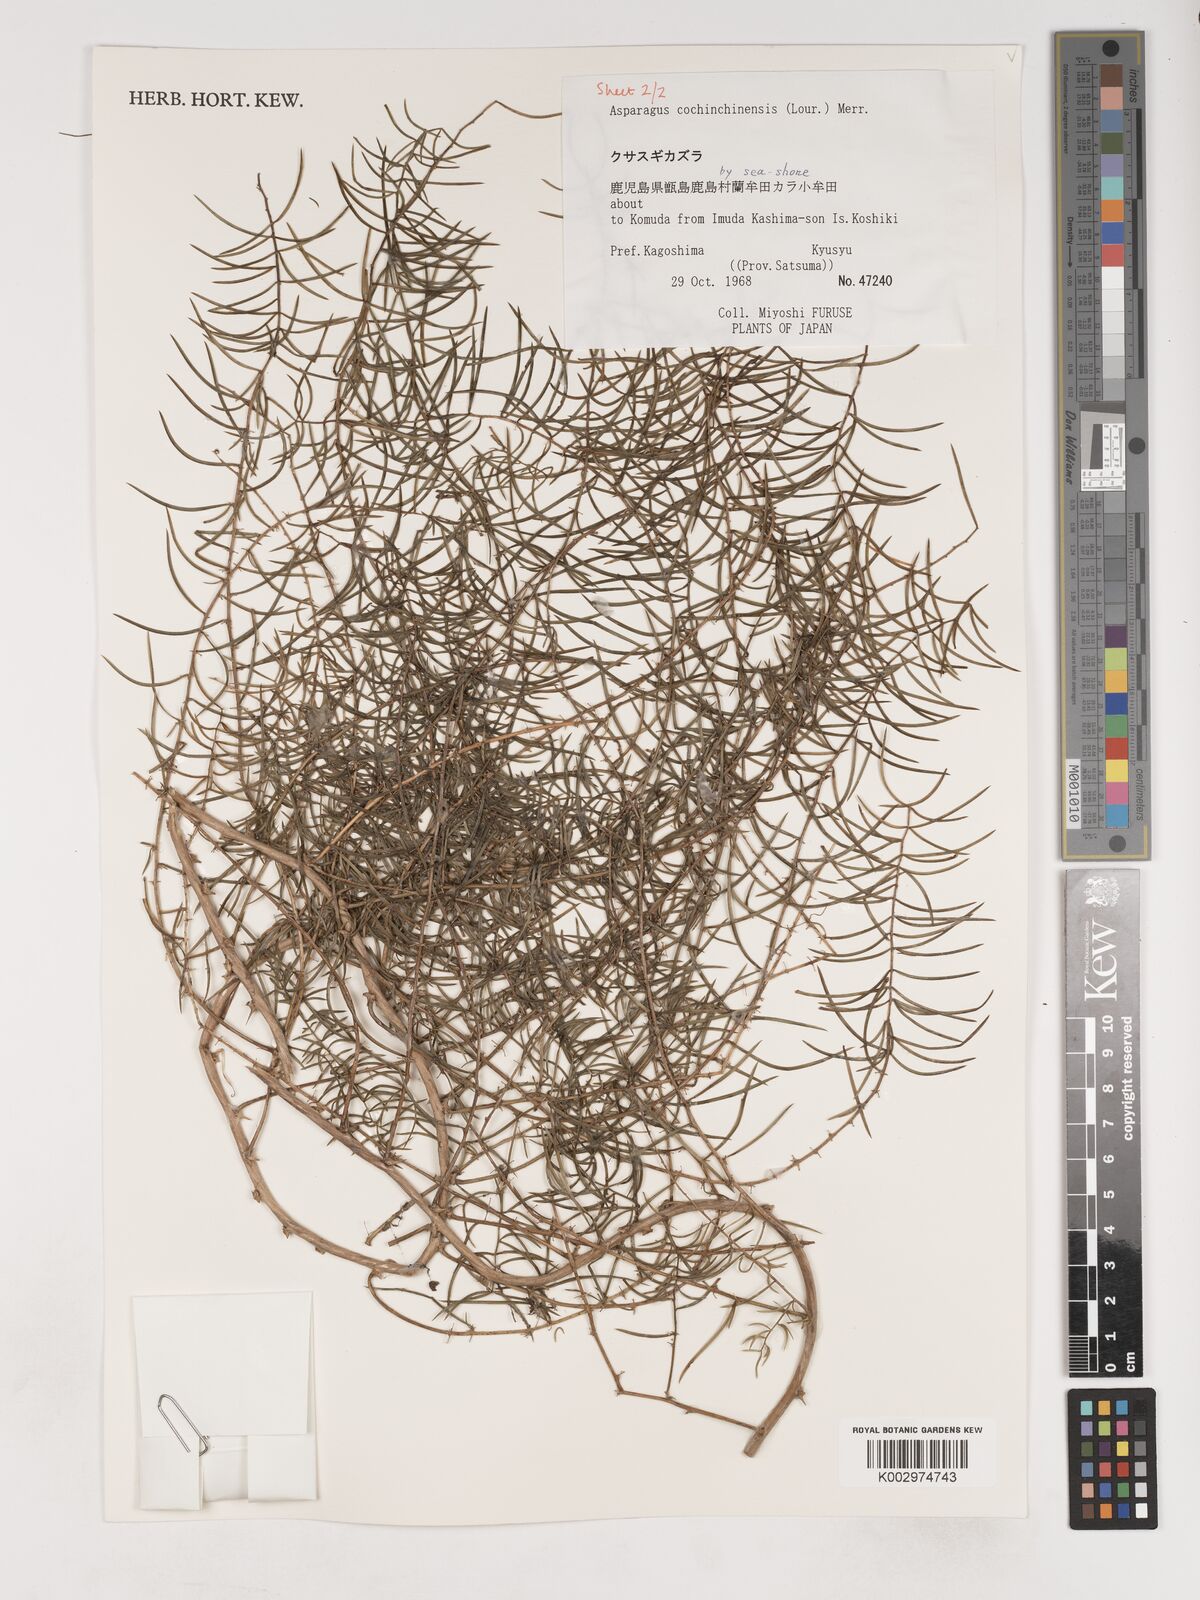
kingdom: Plantae
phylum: Tracheophyta
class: Liliopsida
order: Asparagales
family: Asparagaceae
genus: Asparagus
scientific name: Asparagus cochinchinensis
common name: Chinese asparagus
